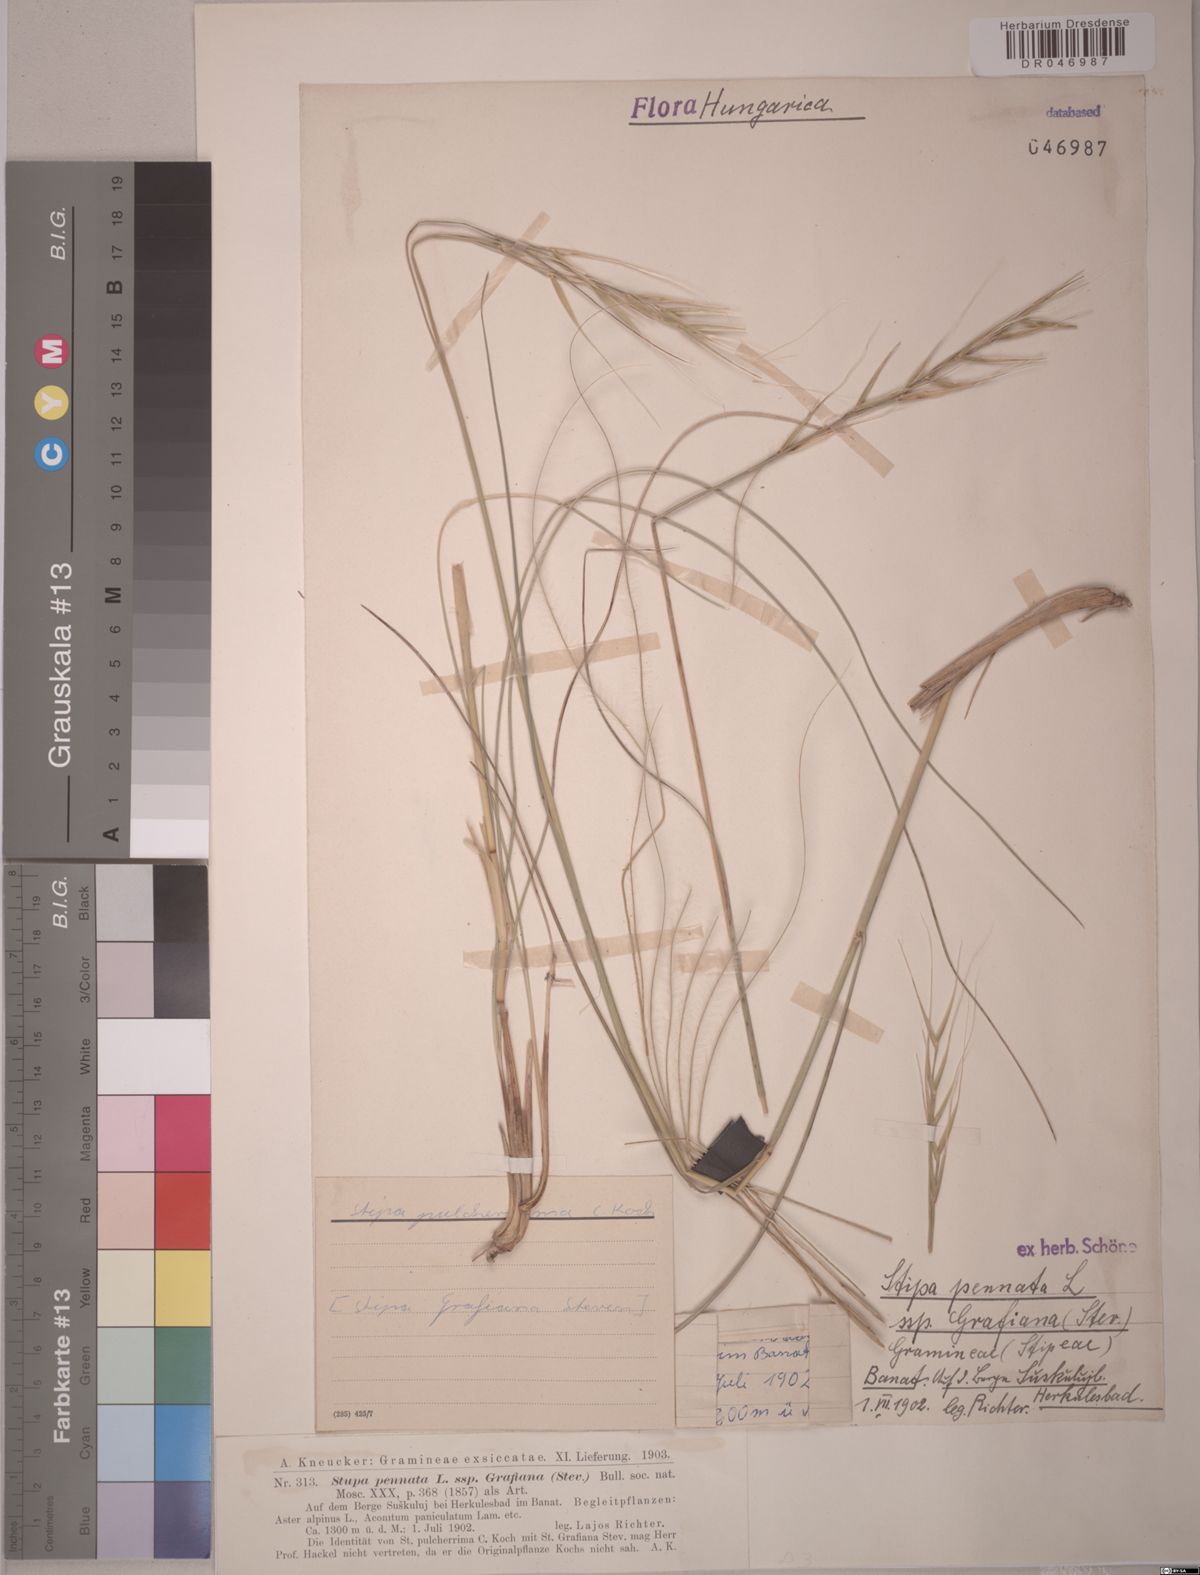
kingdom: Plantae
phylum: Tracheophyta
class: Liliopsida
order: Poales
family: Poaceae
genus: Stipa
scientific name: Stipa pulcherrima
